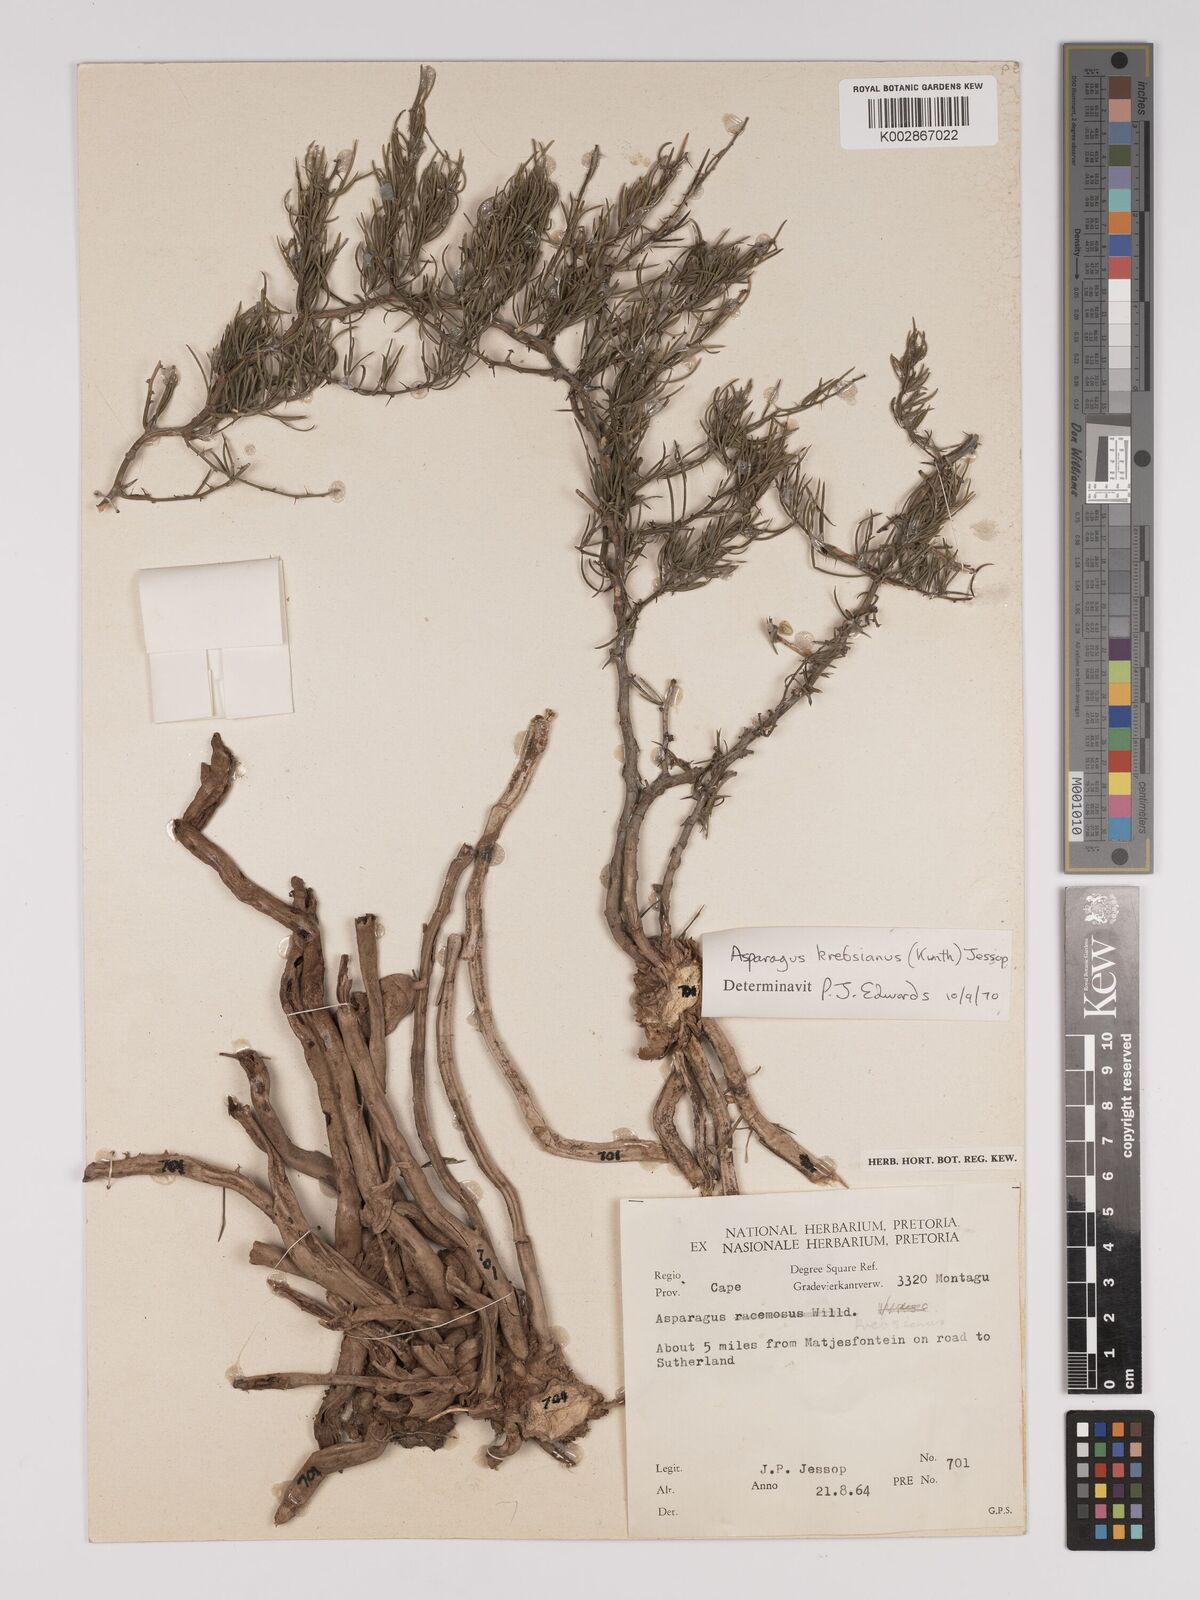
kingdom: Plantae
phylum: Tracheophyta
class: Liliopsida
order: Asparagales
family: Asparagaceae
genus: Asparagus
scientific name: Asparagus krebsianus
